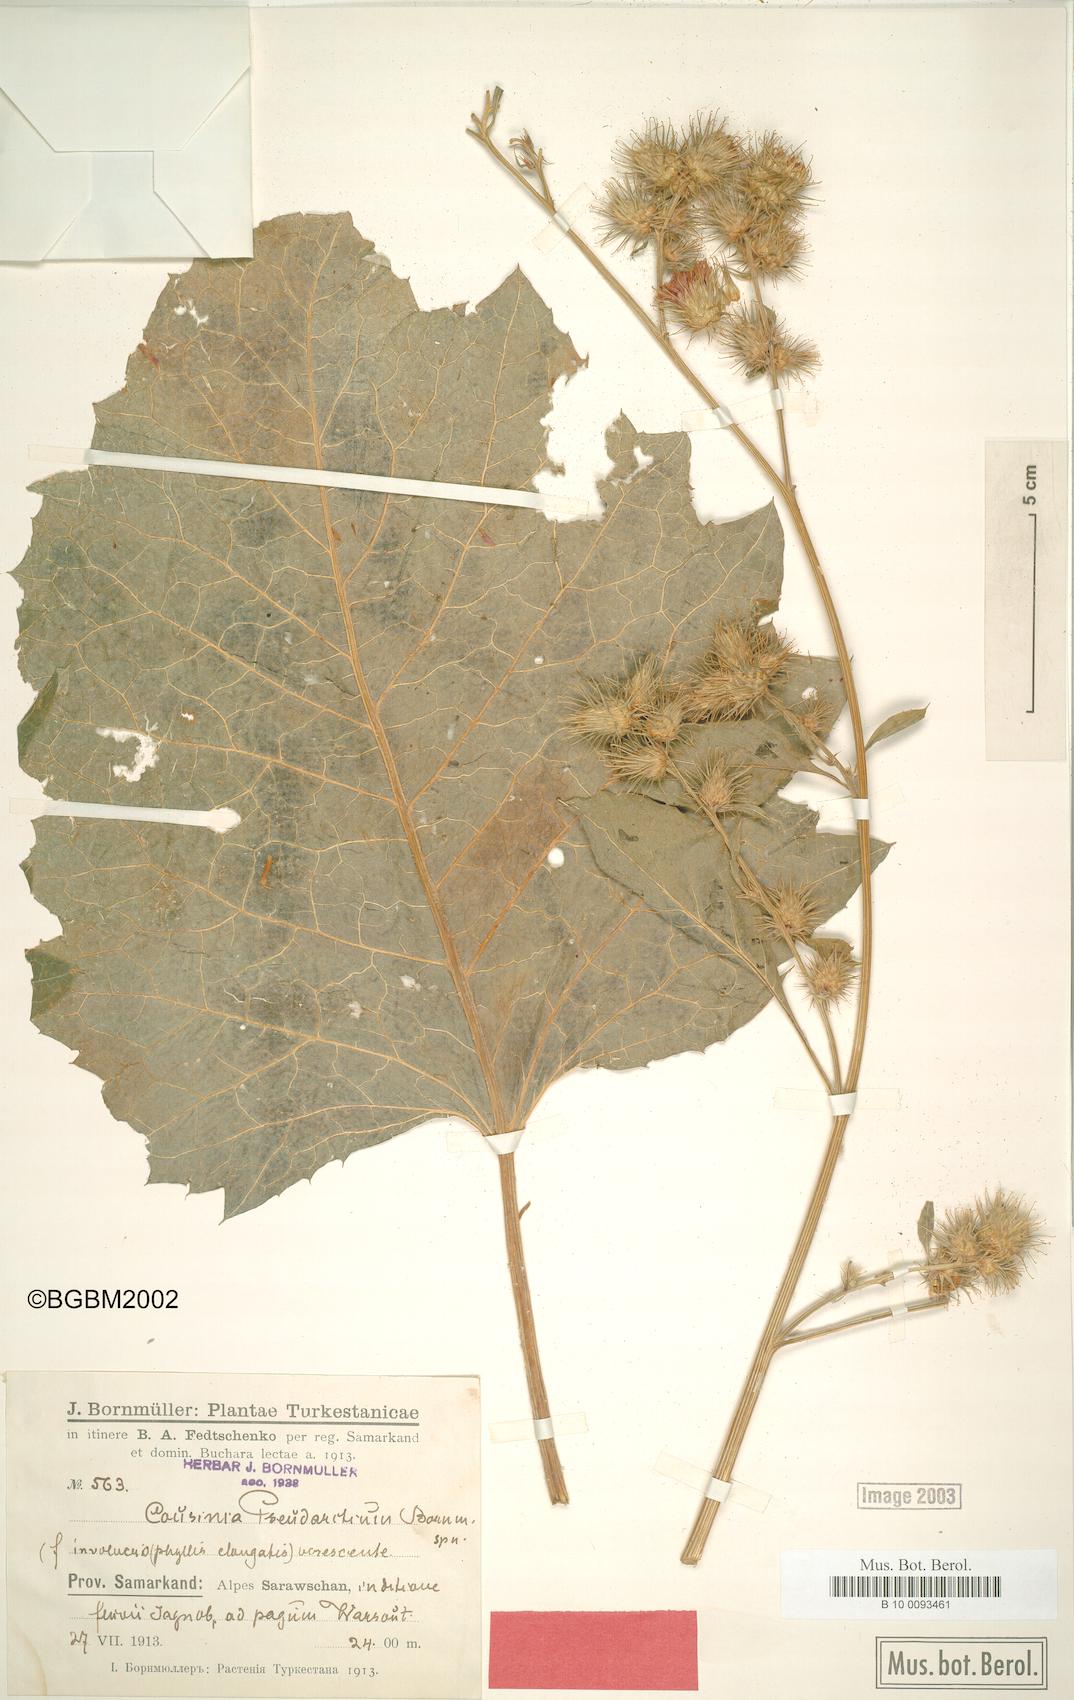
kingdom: Plantae
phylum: Tracheophyta
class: Magnoliopsida
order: Asterales
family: Asteraceae
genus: Arctium
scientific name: Arctium pseudarctium
